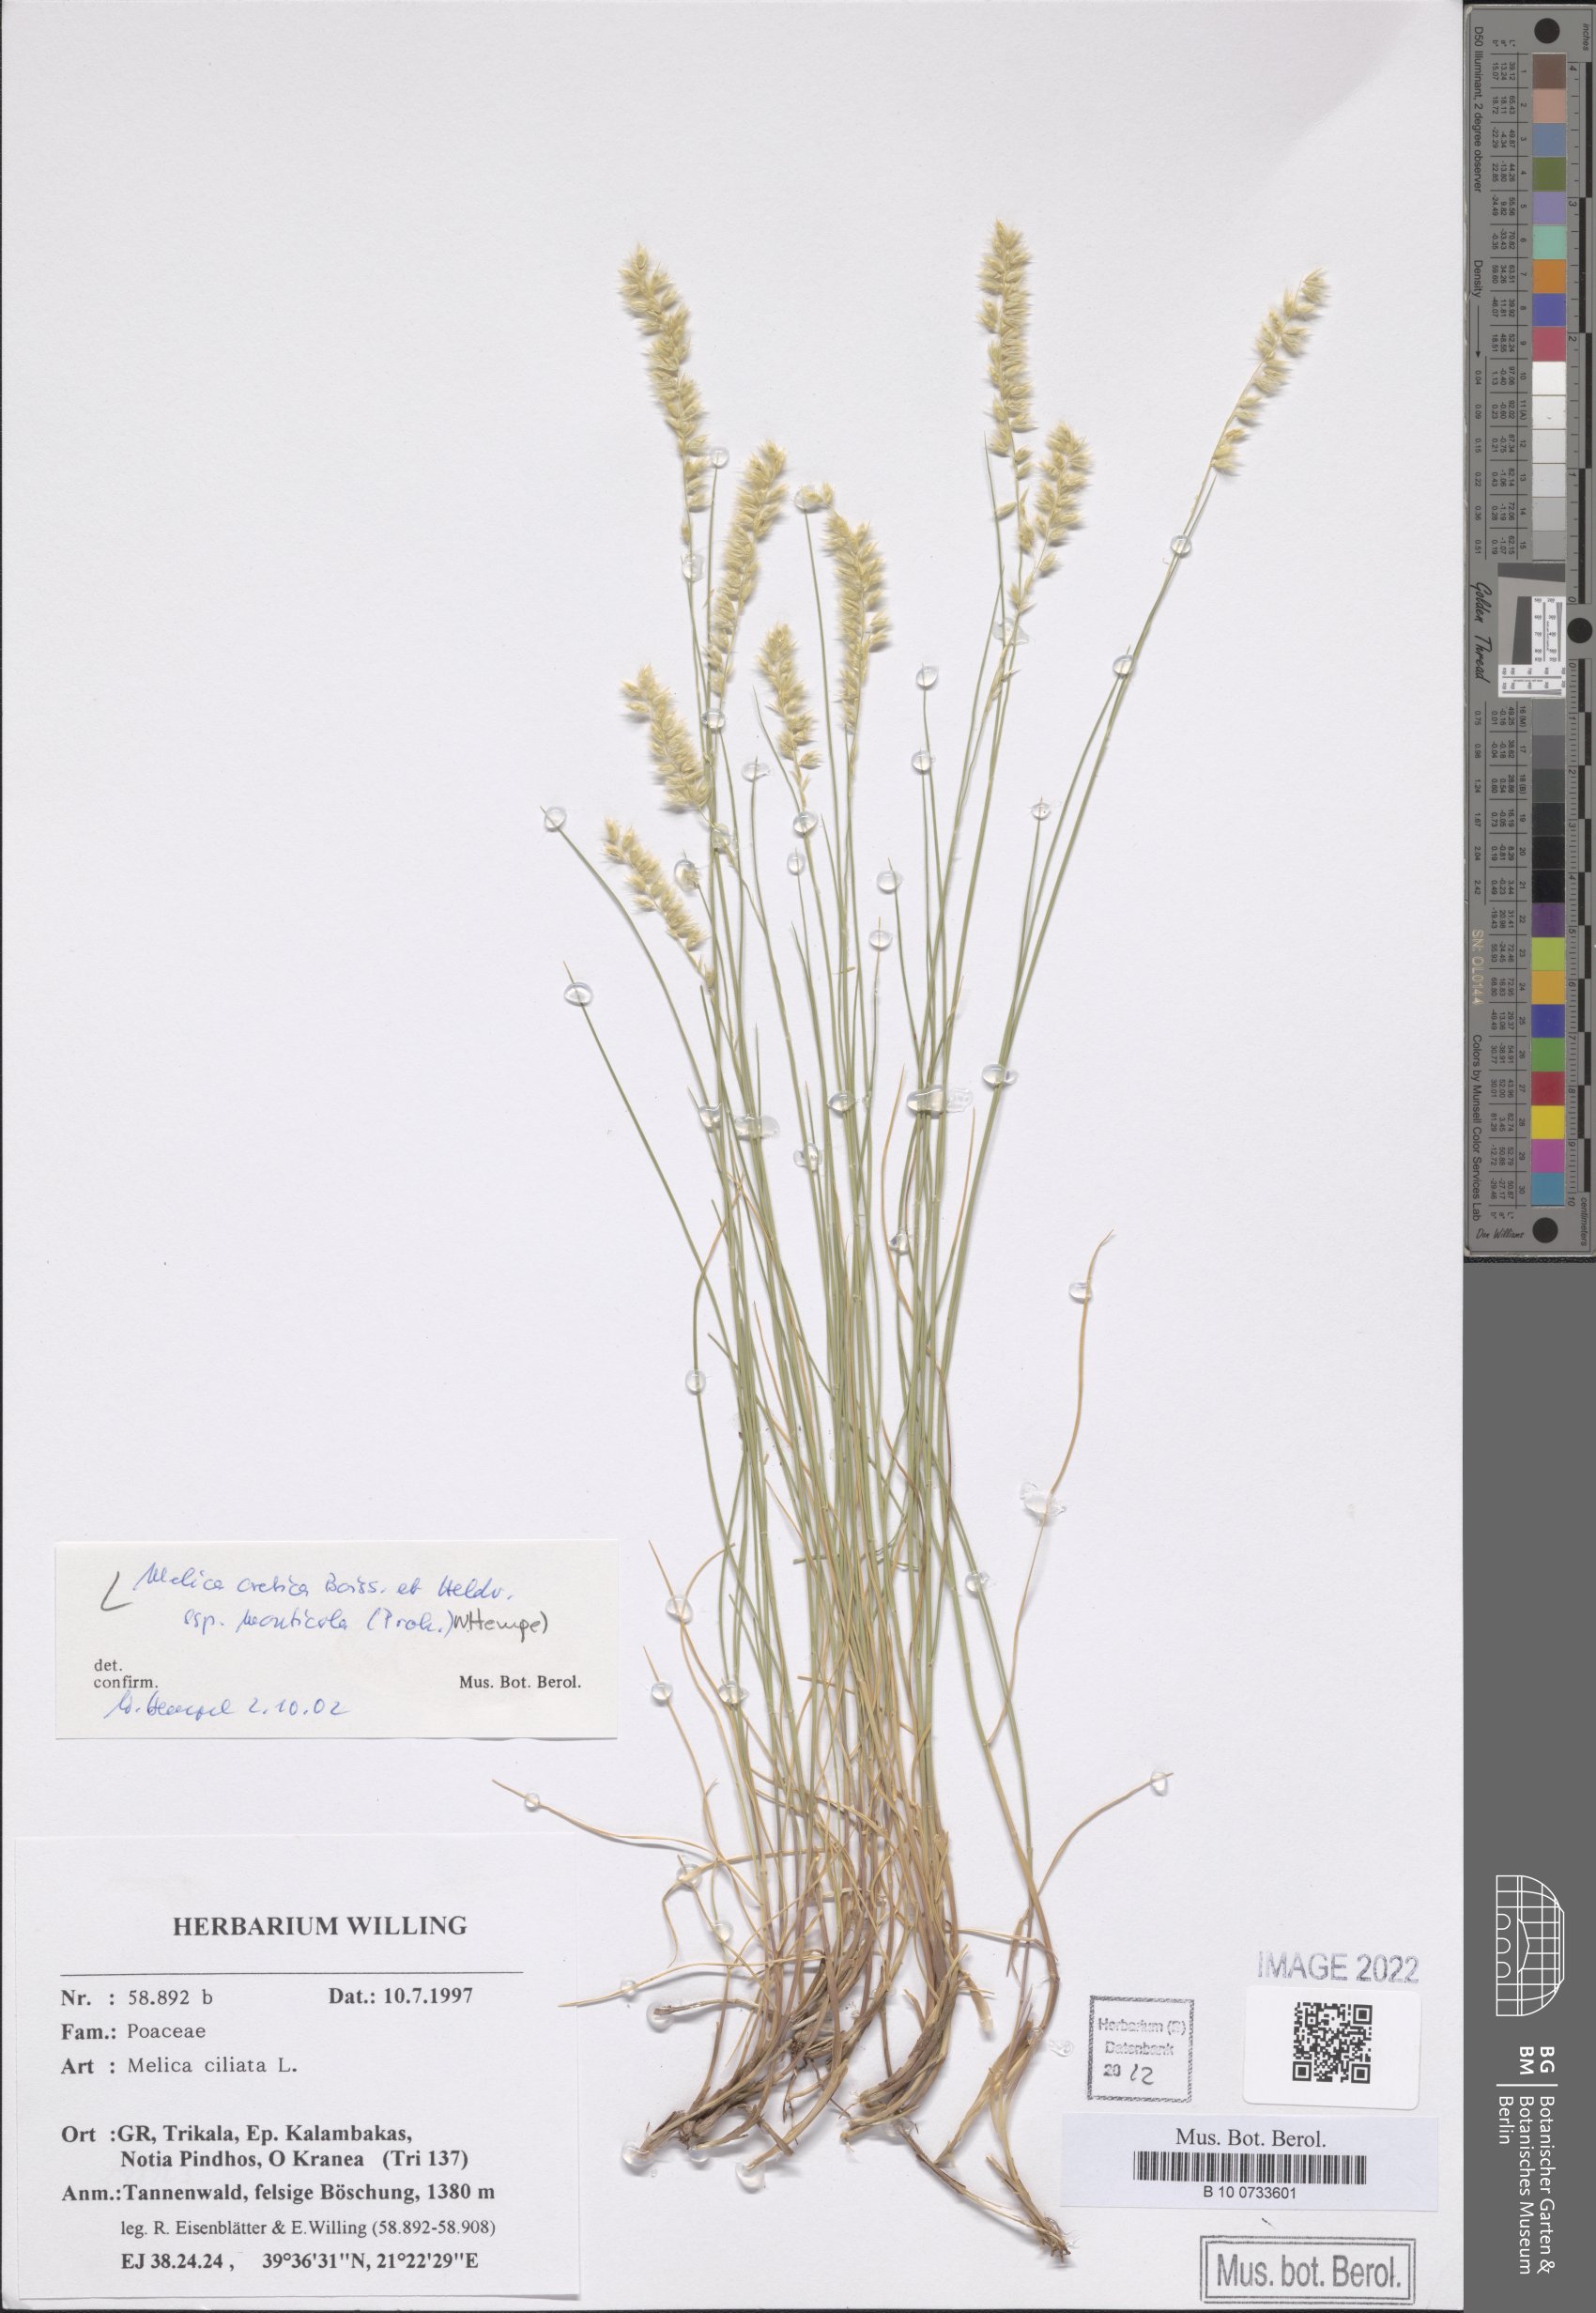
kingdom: Plantae
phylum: Tracheophyta
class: Liliopsida
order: Poales
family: Poaceae
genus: Melica
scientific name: Melica ciliata
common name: Hairy melicgrass
